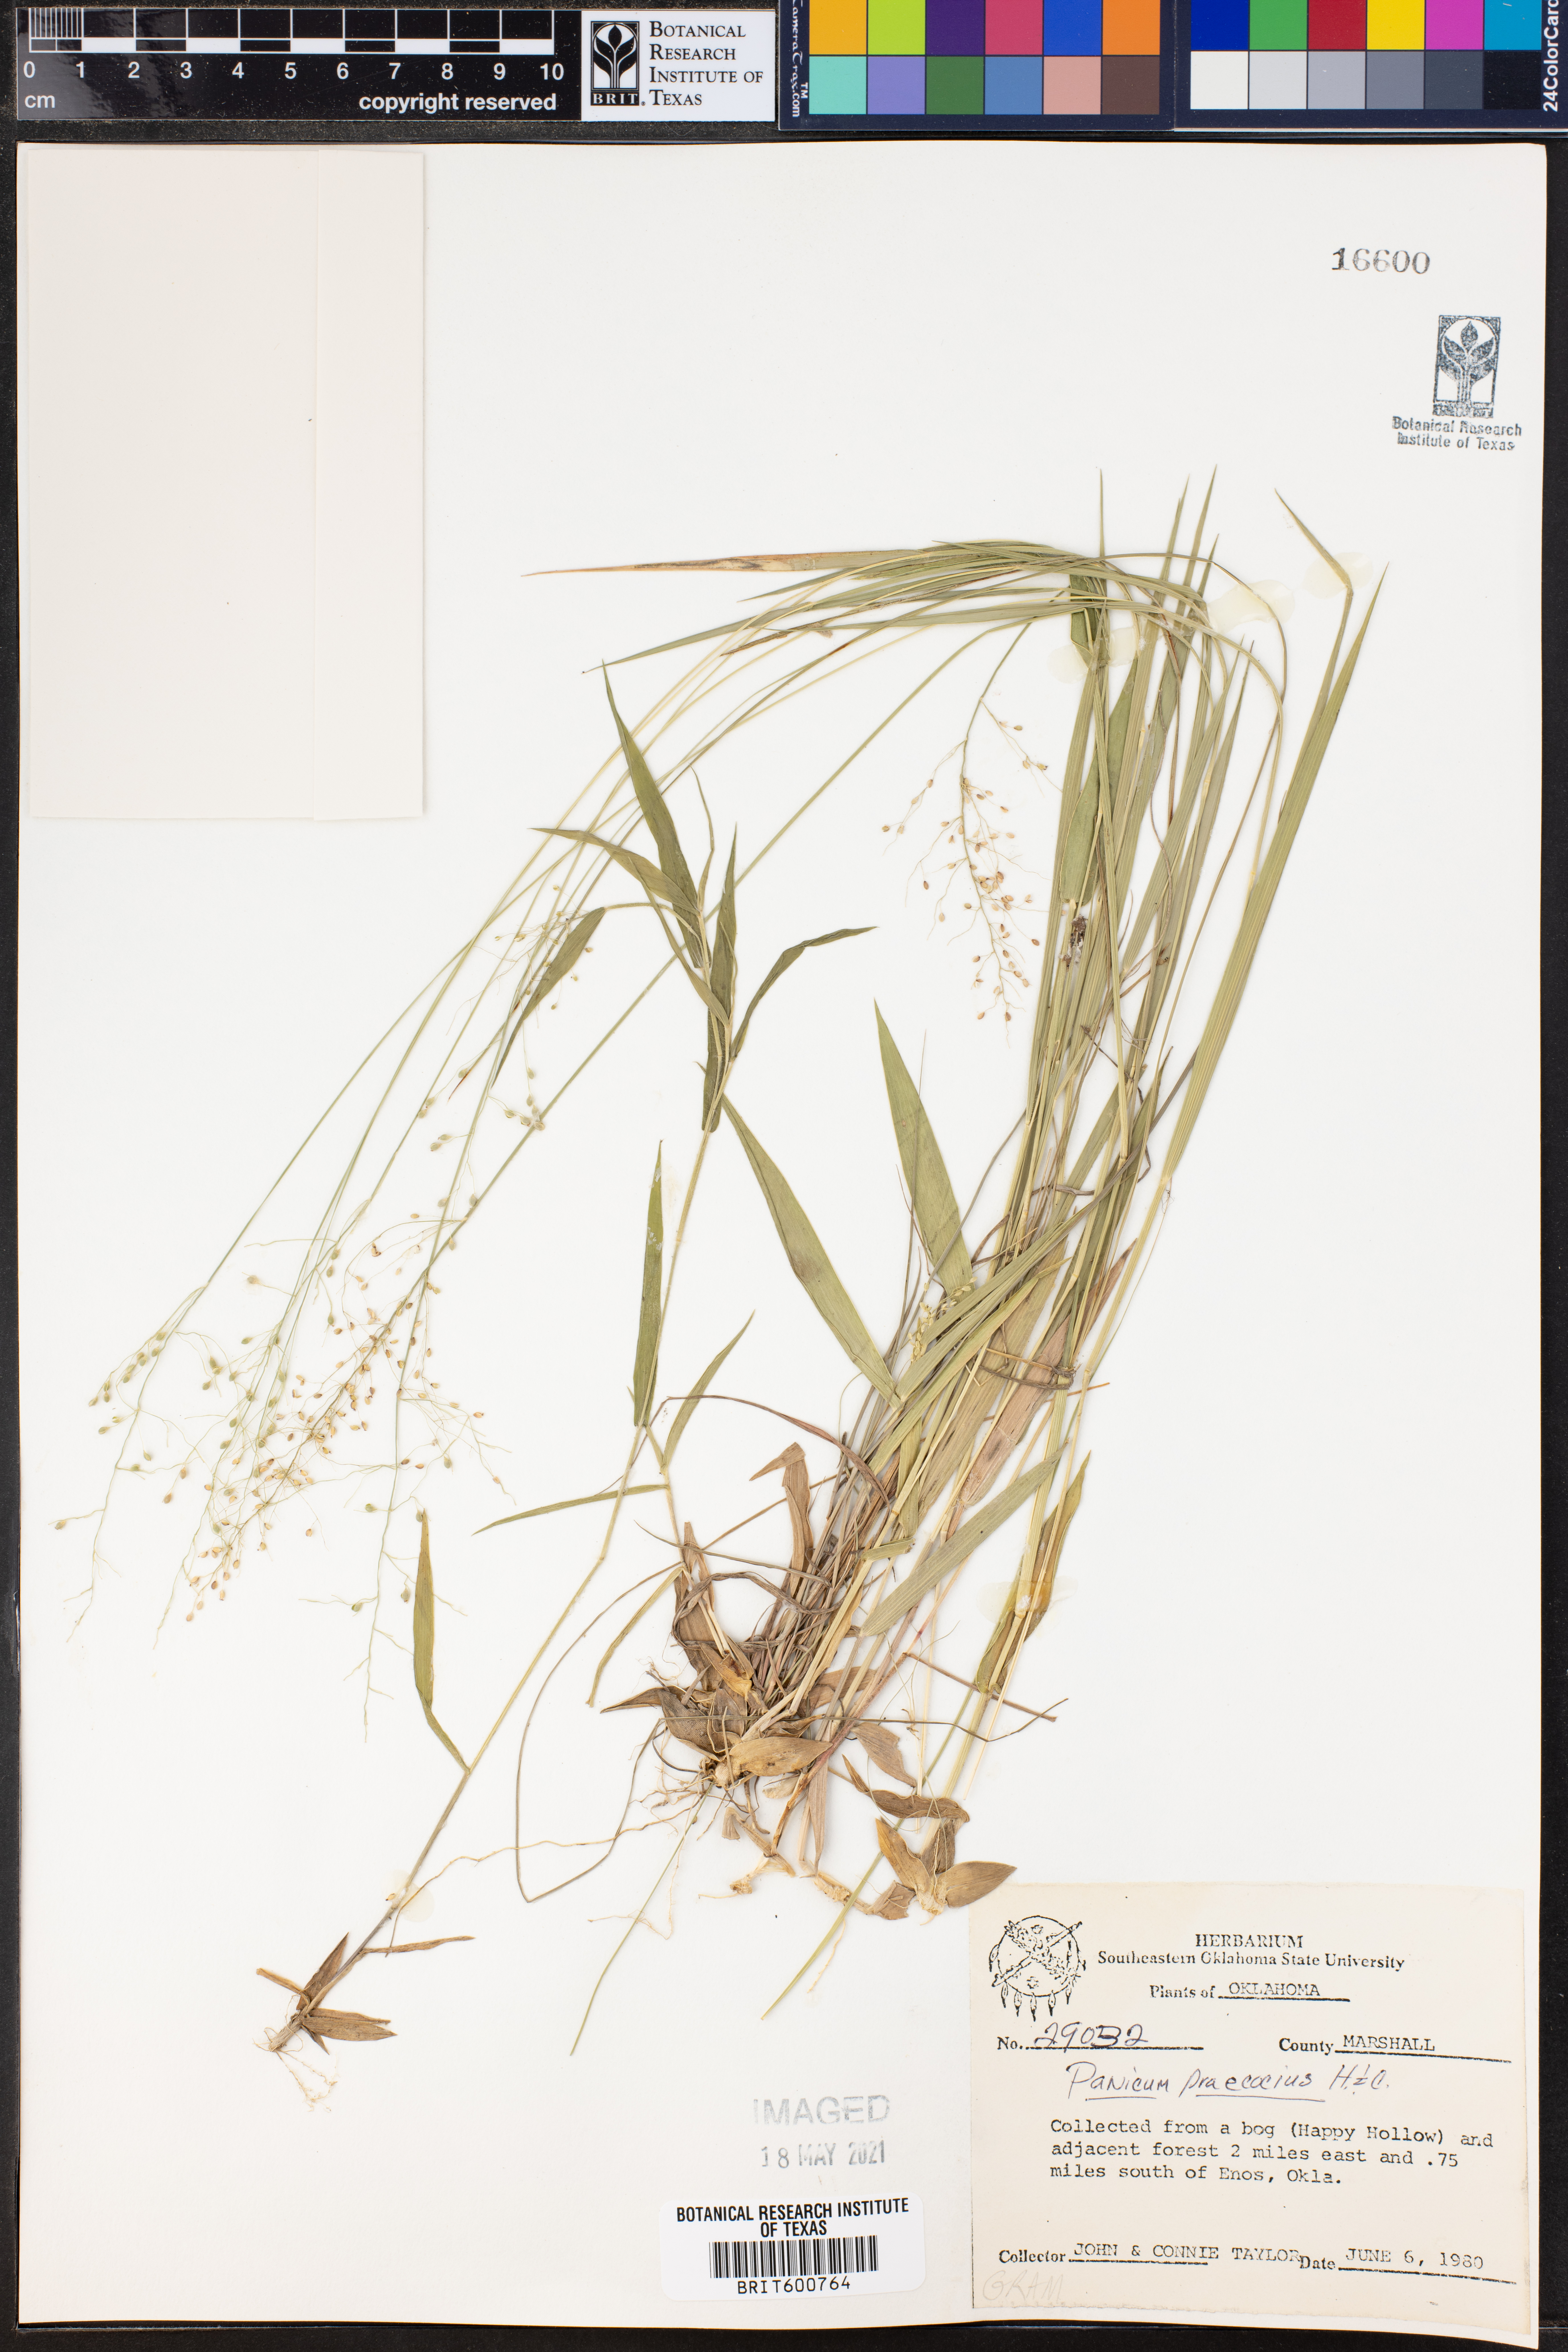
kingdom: Plantae
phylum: Tracheophyta
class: Liliopsida
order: Poales
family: Poaceae
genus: Dichanthelium
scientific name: Dichanthelium praecocius
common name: Early-branching panicgrass
